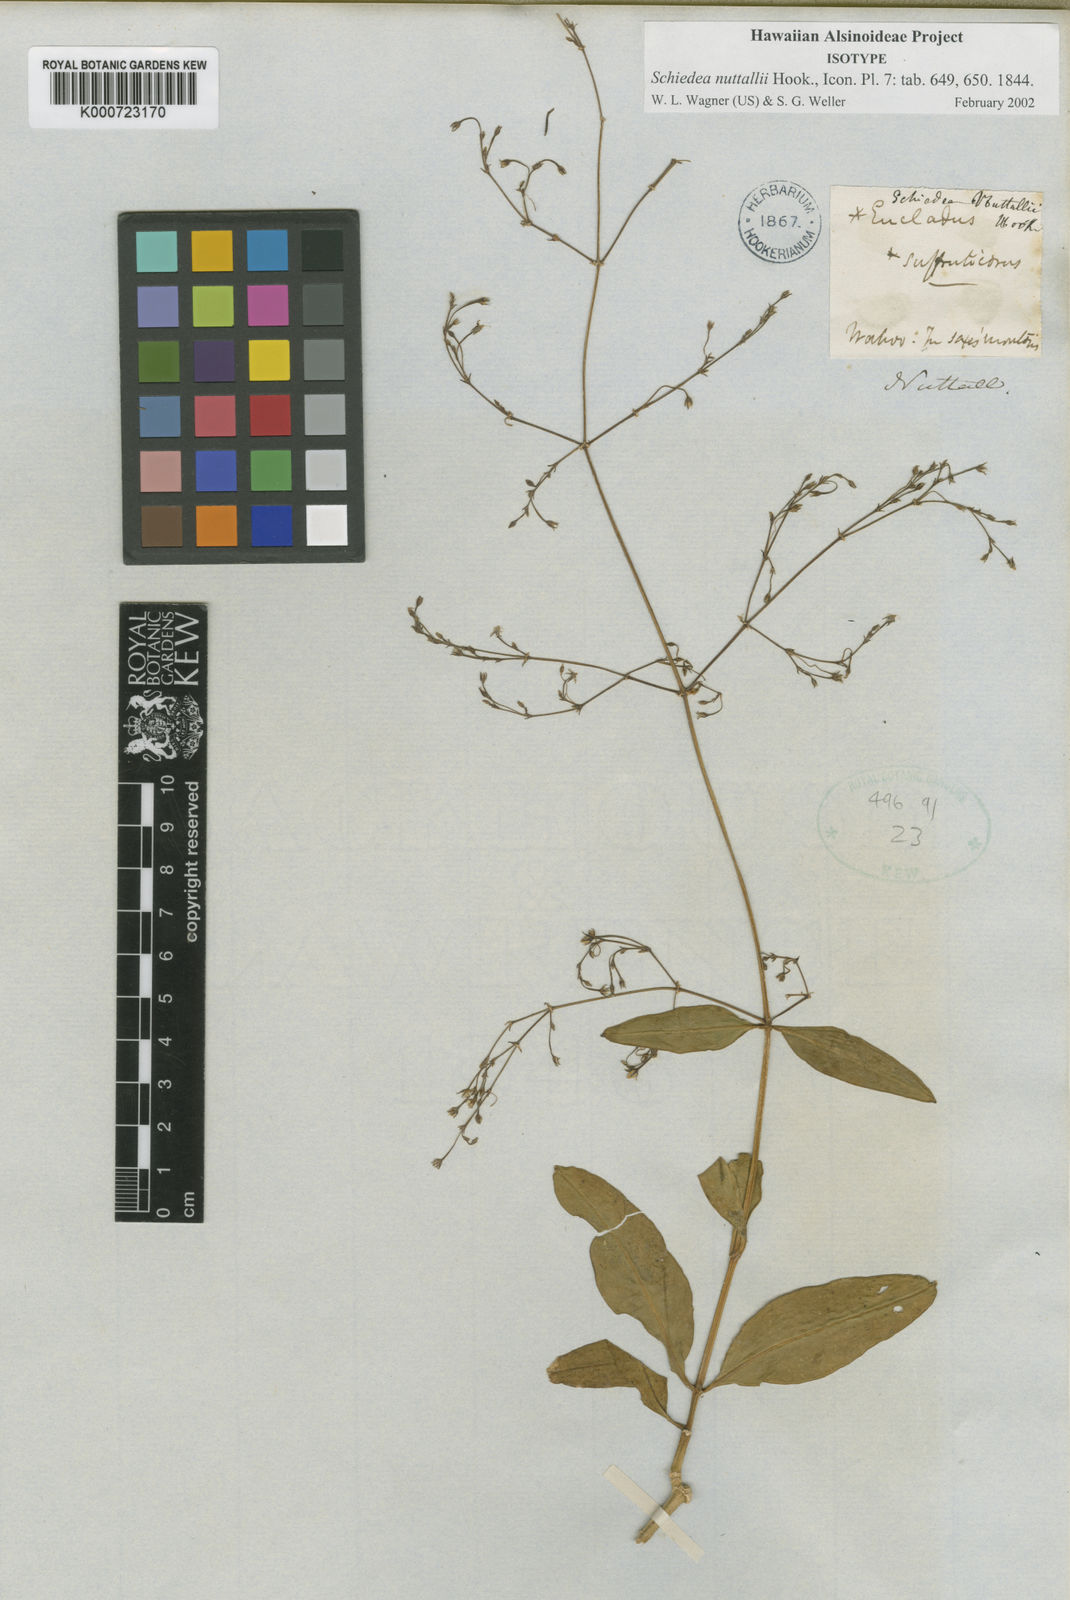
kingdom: Plantae
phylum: Tracheophyta
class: Magnoliopsida
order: Caryophyllales
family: Caryophyllaceae
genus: Schiedea
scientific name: Schiedea nuttallii
